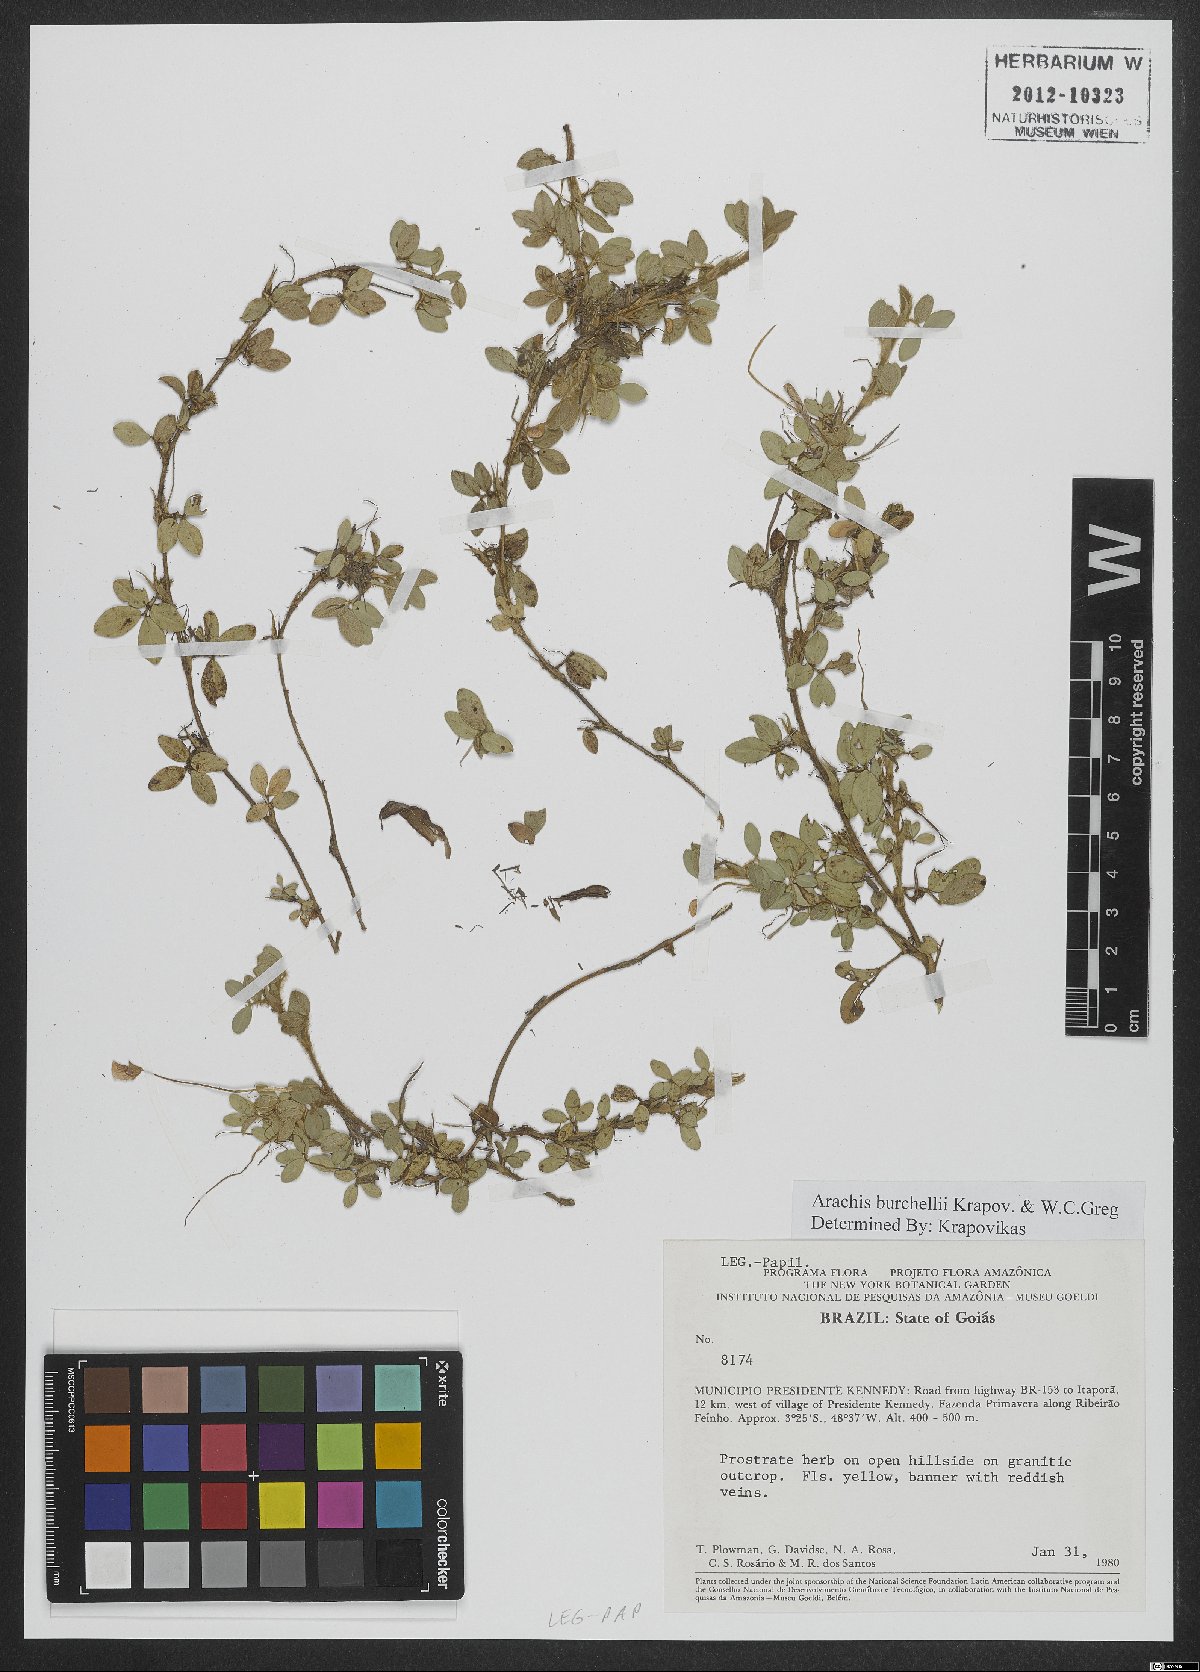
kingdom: Plantae
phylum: Tracheophyta
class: Magnoliopsida
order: Fabales
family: Fabaceae
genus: Arachis
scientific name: Arachis burchellii
